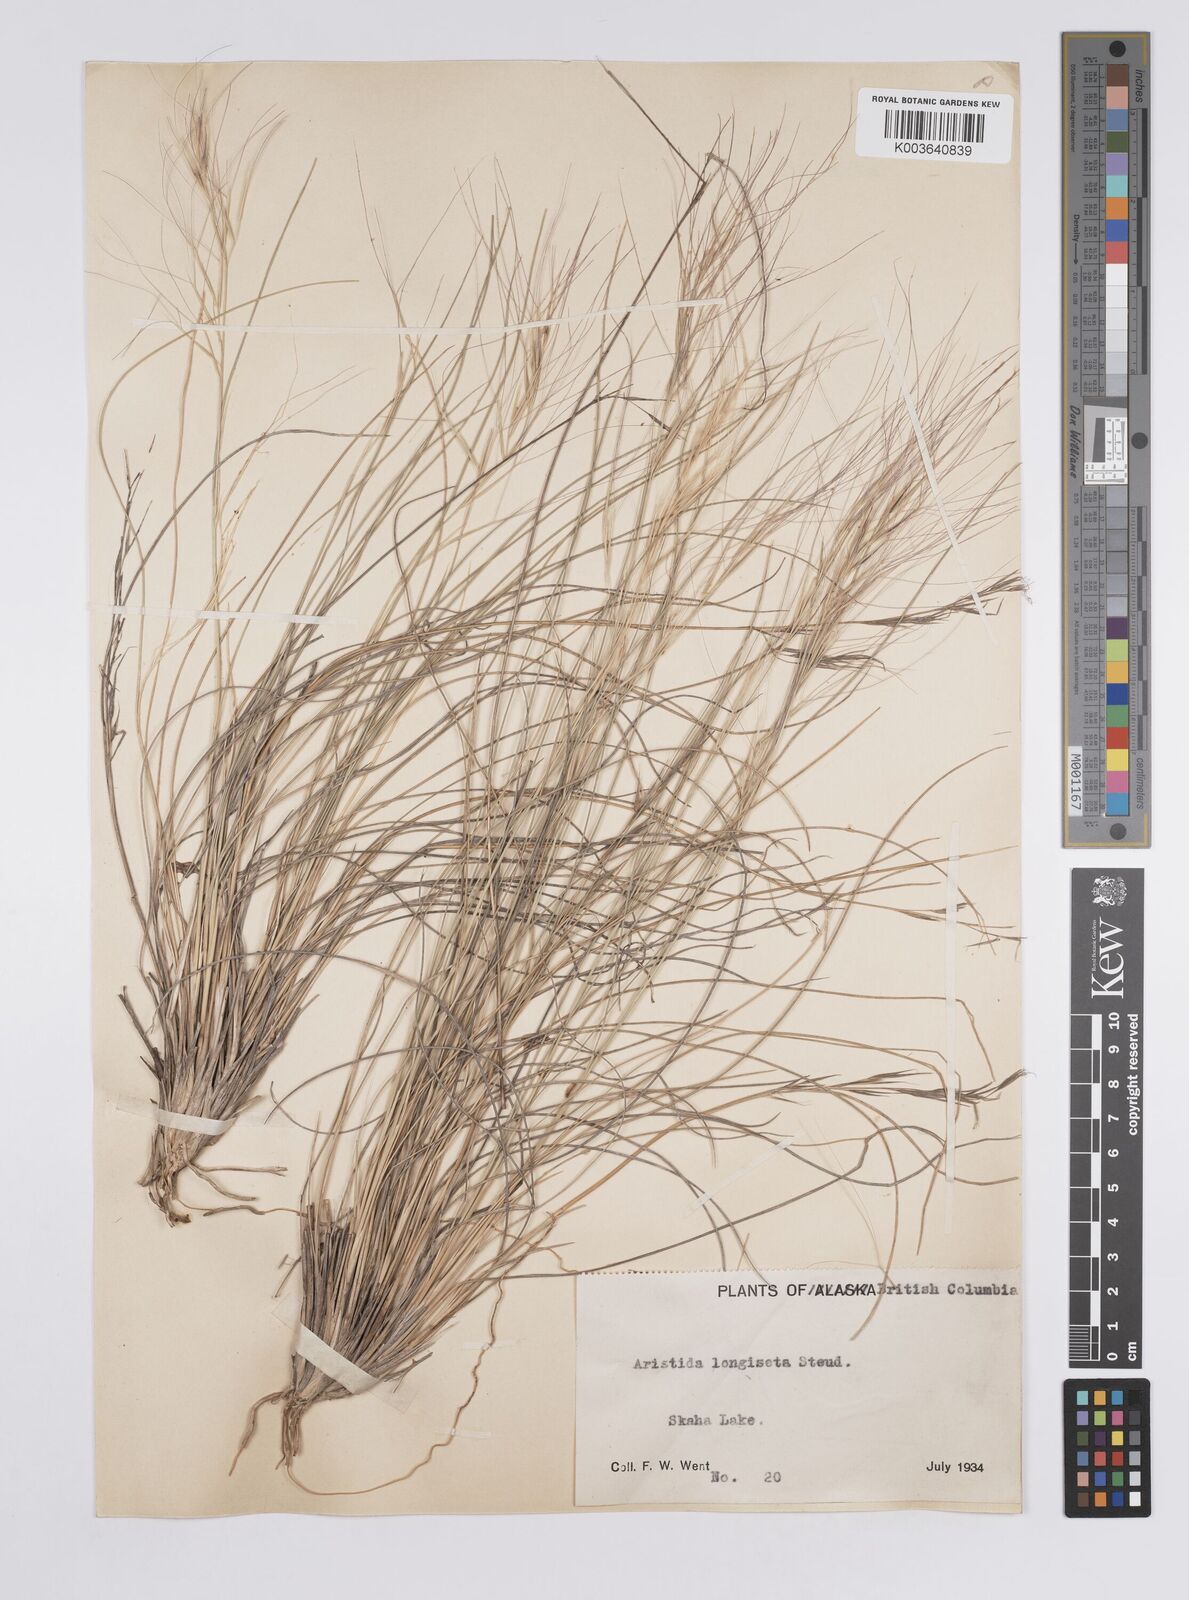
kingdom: Plantae
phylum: Tracheophyta
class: Liliopsida
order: Poales
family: Poaceae
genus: Aristida
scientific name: Aristida purpurea
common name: Purple threeawn
